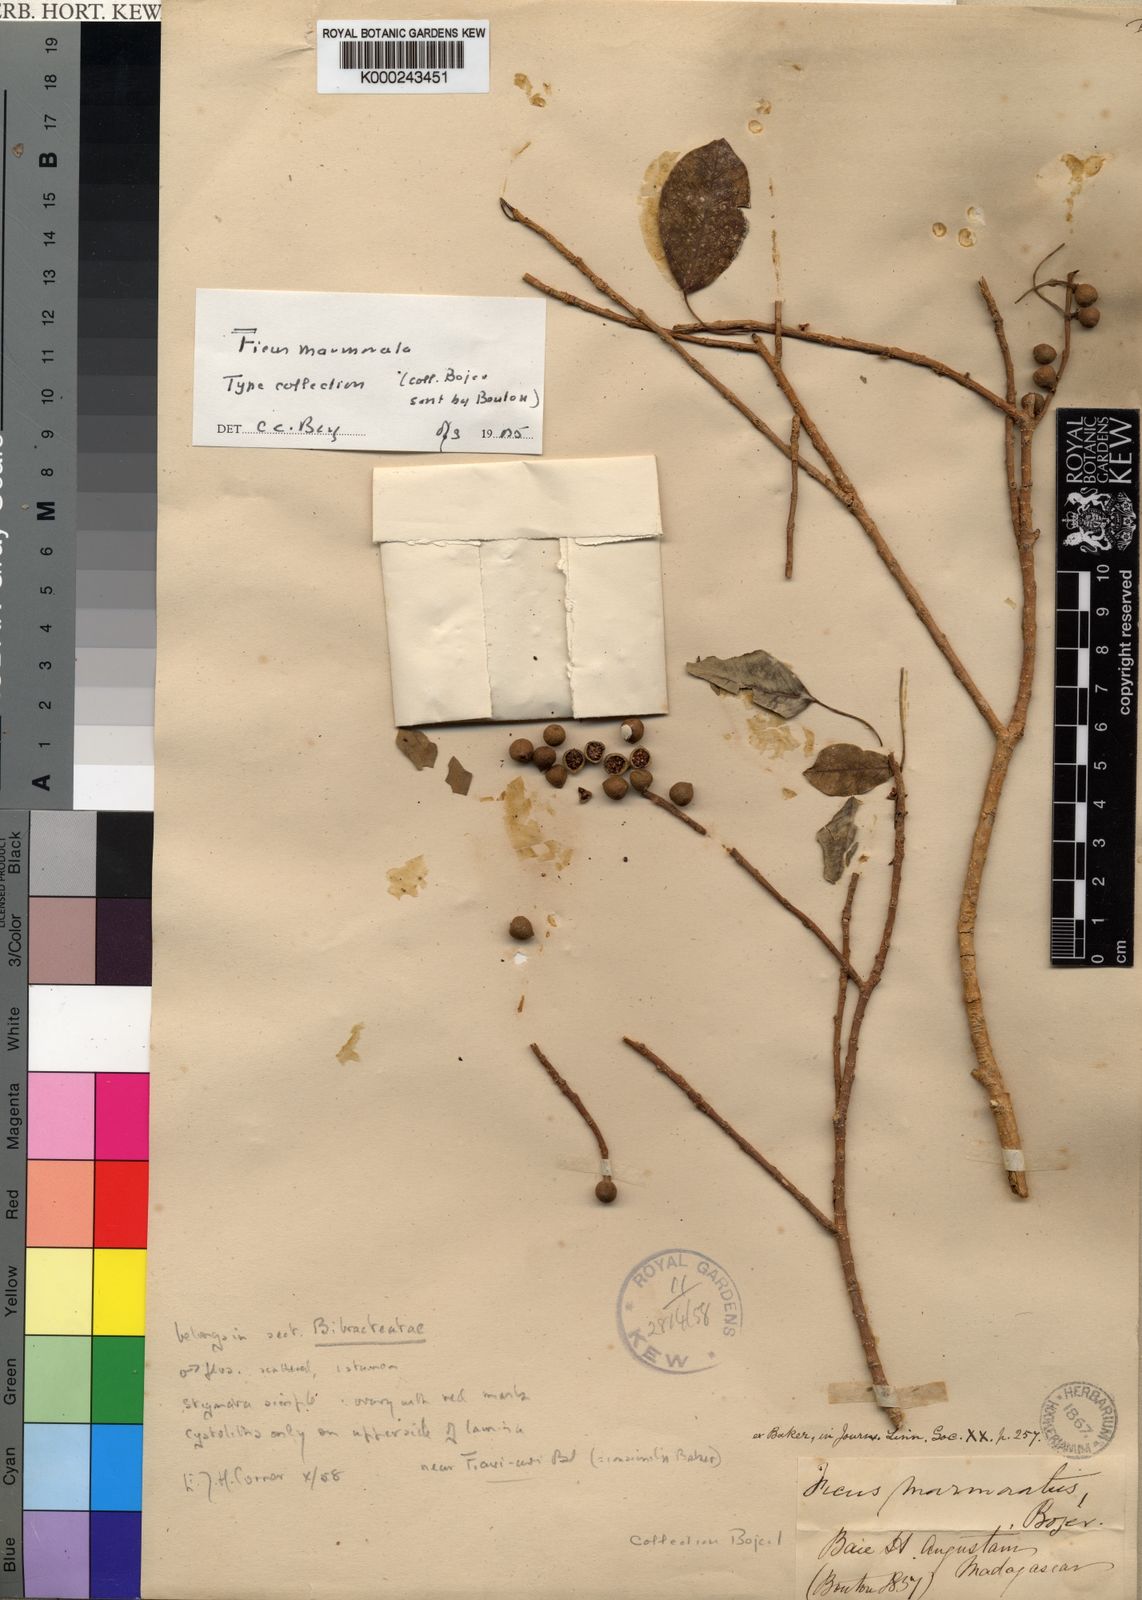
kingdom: Plantae
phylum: Tracheophyta
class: Magnoliopsida
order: Rosales
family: Moraceae
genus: Ficus
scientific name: Ficus marmorata
